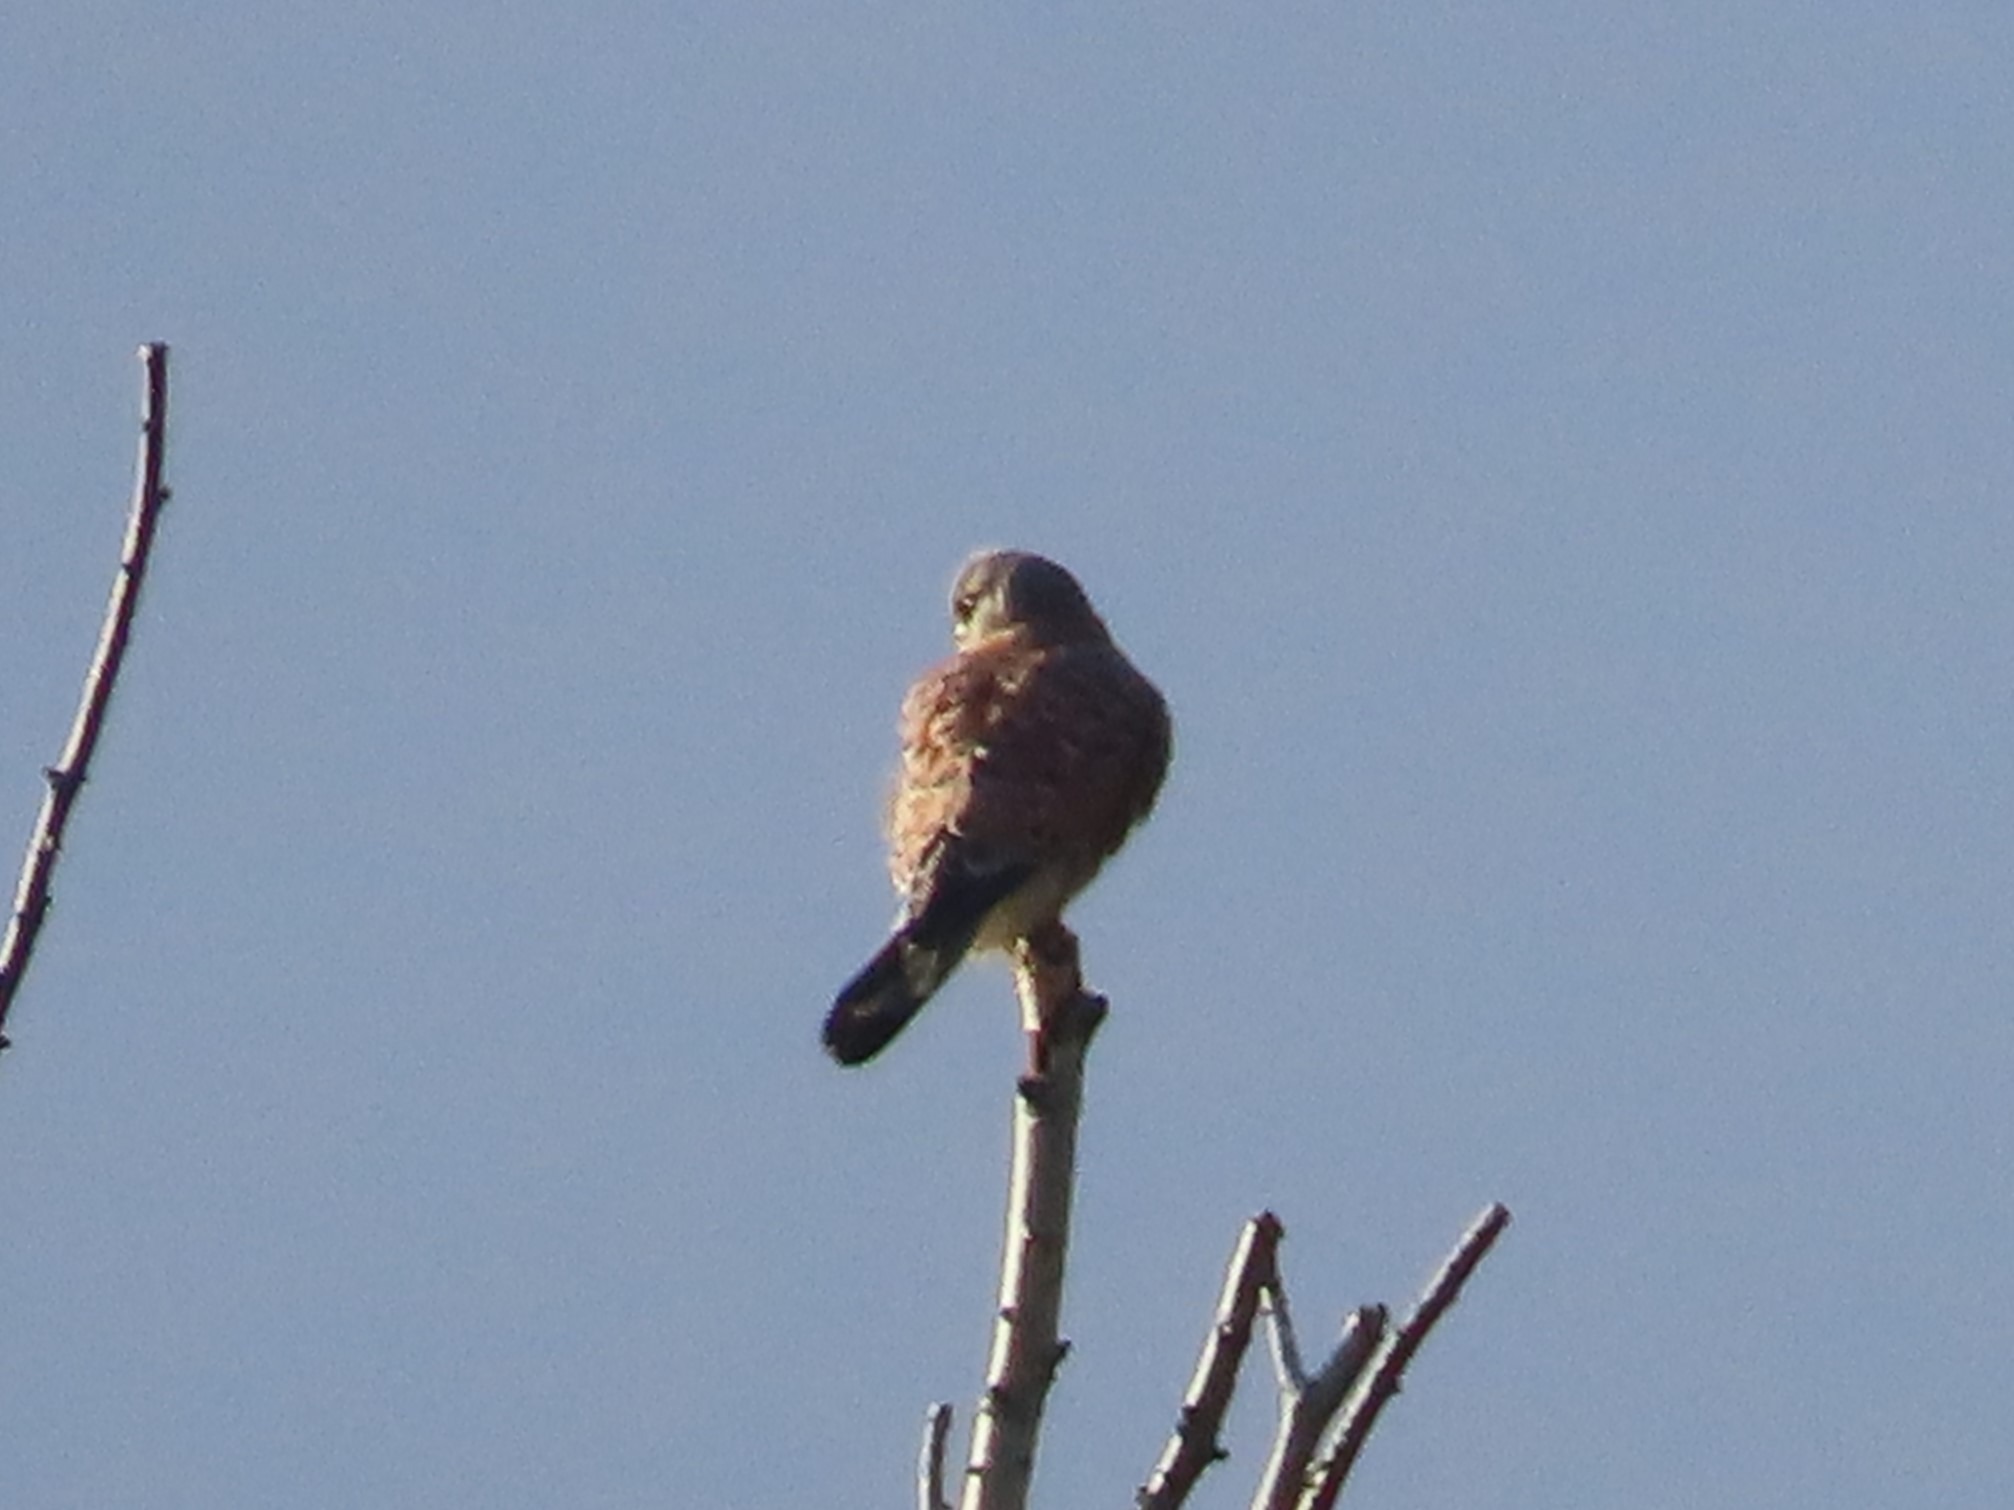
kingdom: Animalia
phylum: Chordata
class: Aves
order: Falconiformes
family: Falconidae
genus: Falco
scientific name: Falco tinnunculus
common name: Tårnfalk
